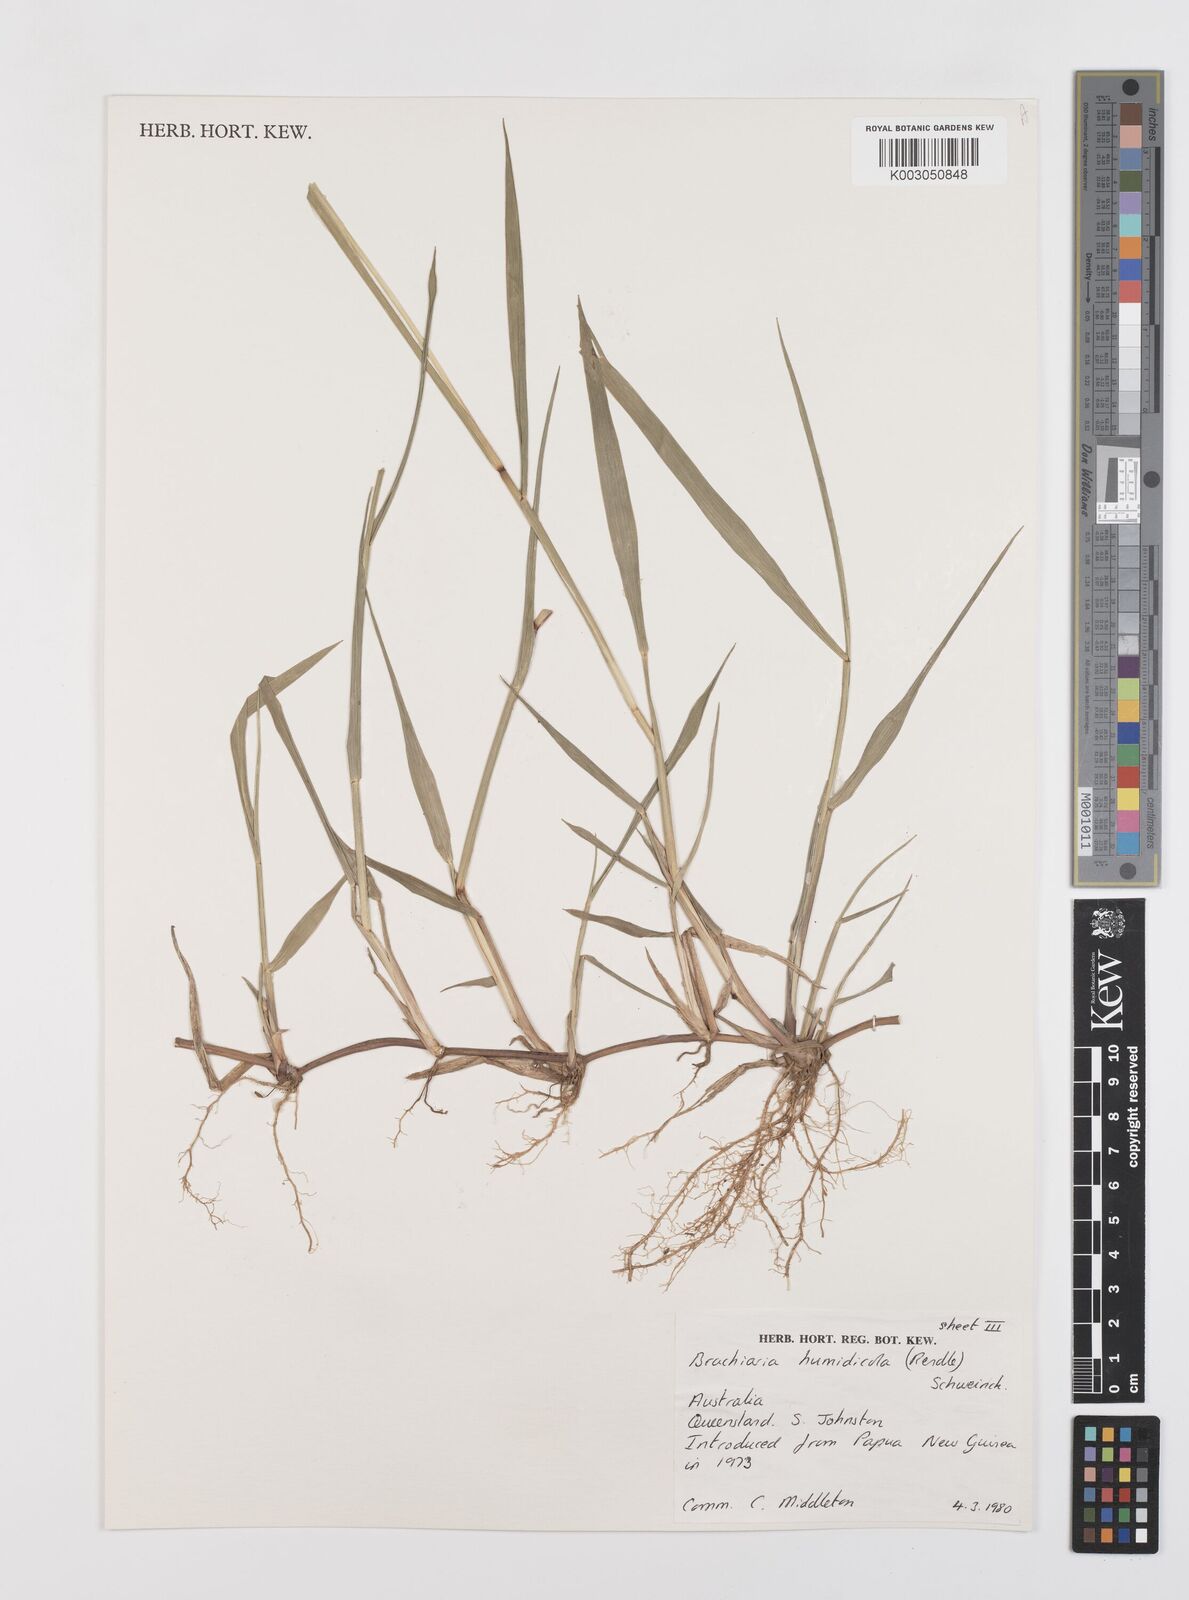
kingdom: Plantae
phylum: Tracheophyta
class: Liliopsida
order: Poales
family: Poaceae
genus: Urochloa
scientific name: Urochloa dictyoneura
